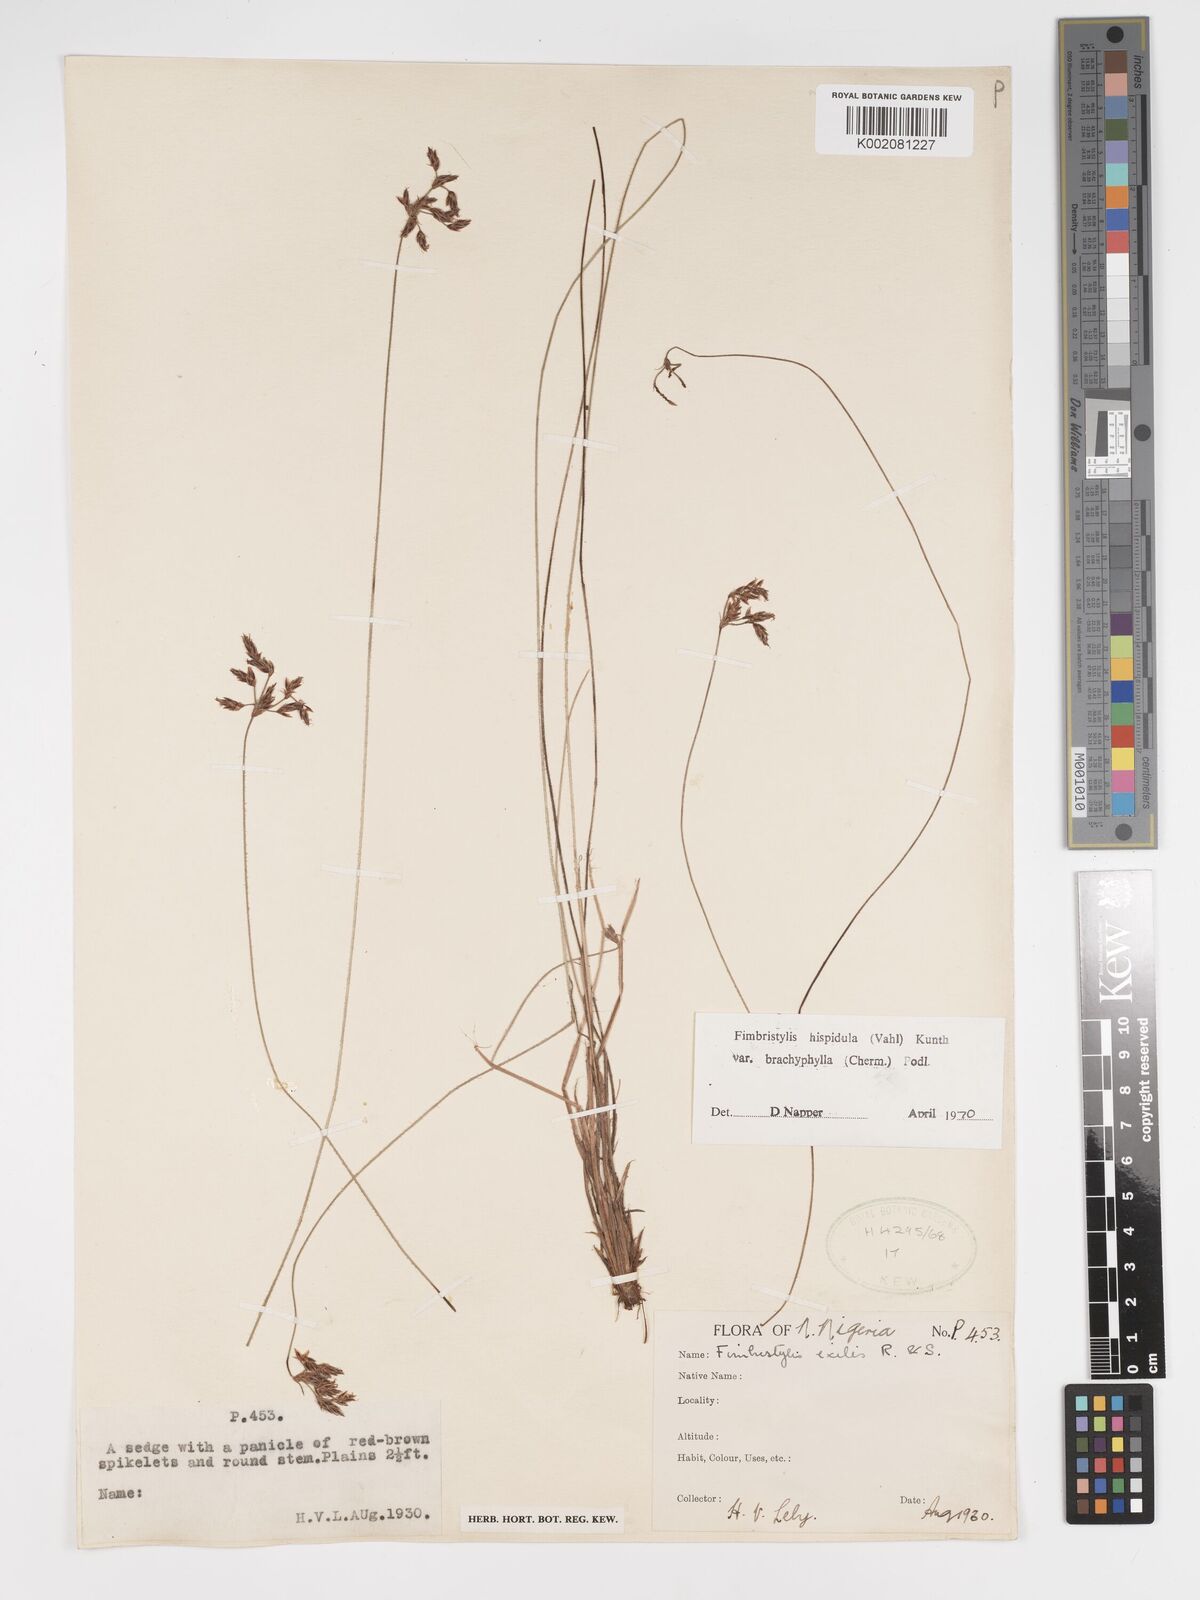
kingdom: Plantae
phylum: Tracheophyta
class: Liliopsida
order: Poales
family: Cyperaceae
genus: Bulbostylis
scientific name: Bulbostylis hispidula
